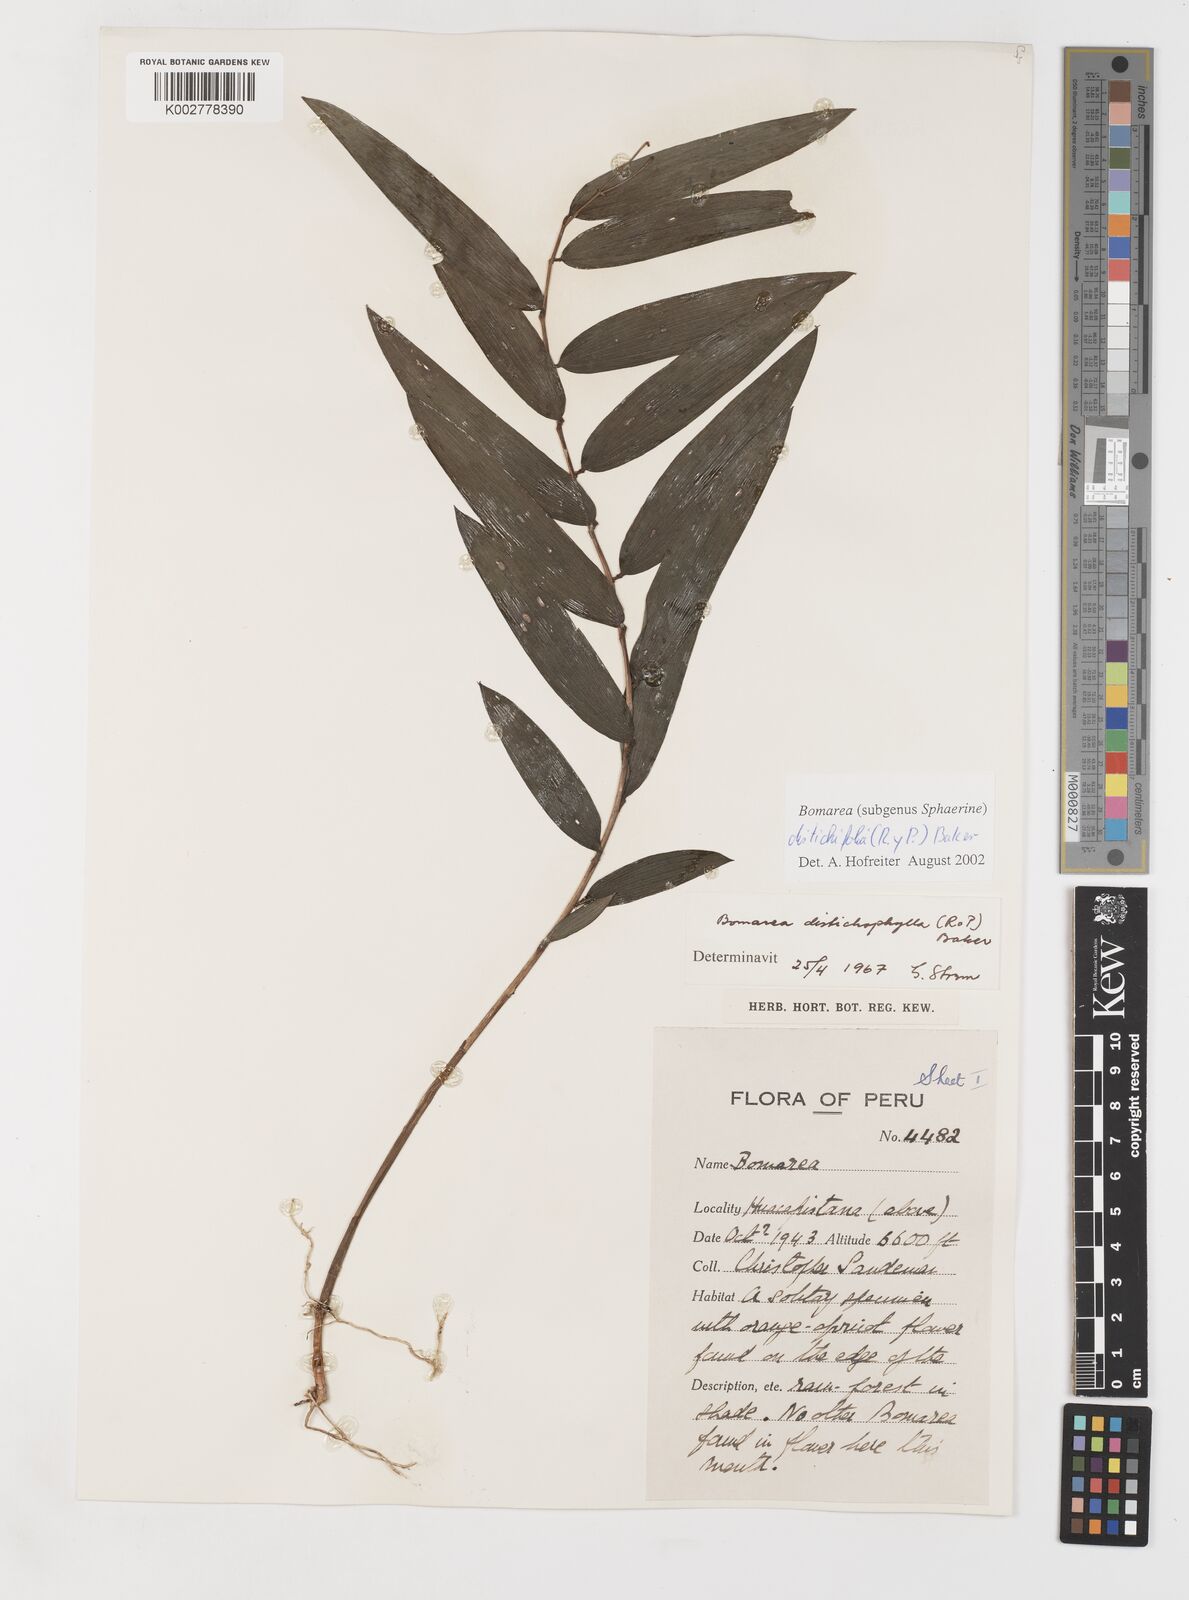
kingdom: Plantae
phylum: Tracheophyta
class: Liliopsida
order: Liliales
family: Alstroemeriaceae
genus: Bomarea
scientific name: Bomarea distichifolia
